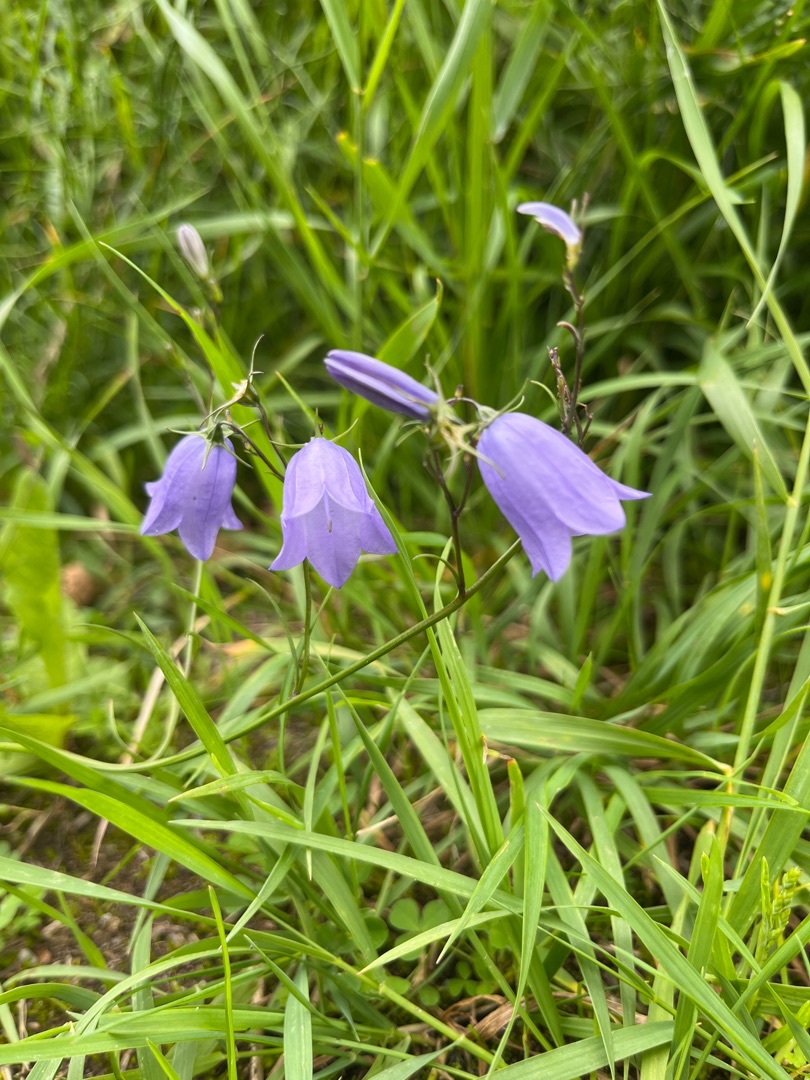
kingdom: Plantae
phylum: Tracheophyta
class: Magnoliopsida
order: Asterales
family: Campanulaceae
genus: Campanula
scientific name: Campanula rotundifolia
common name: Liden klokke
